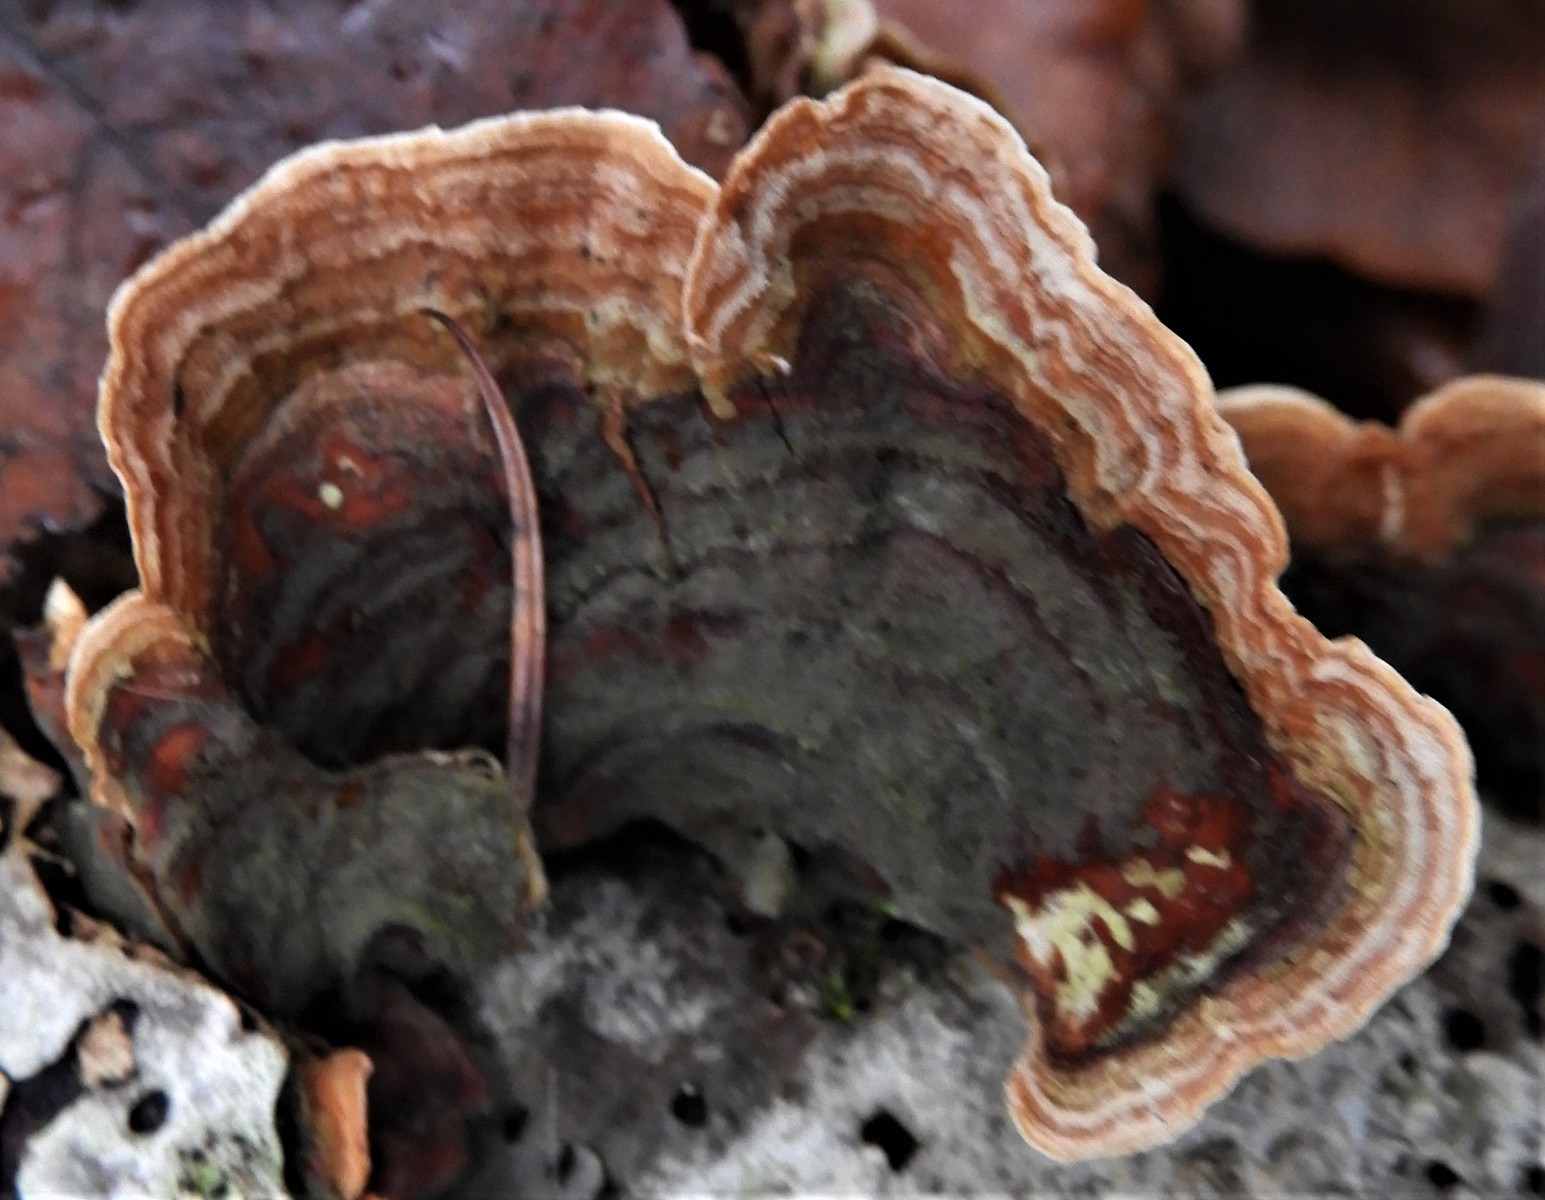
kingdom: Fungi
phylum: Basidiomycota
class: Agaricomycetes
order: Russulales
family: Stereaceae
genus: Stereum
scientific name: Stereum subtomentosum
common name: smuk lædersvamp
